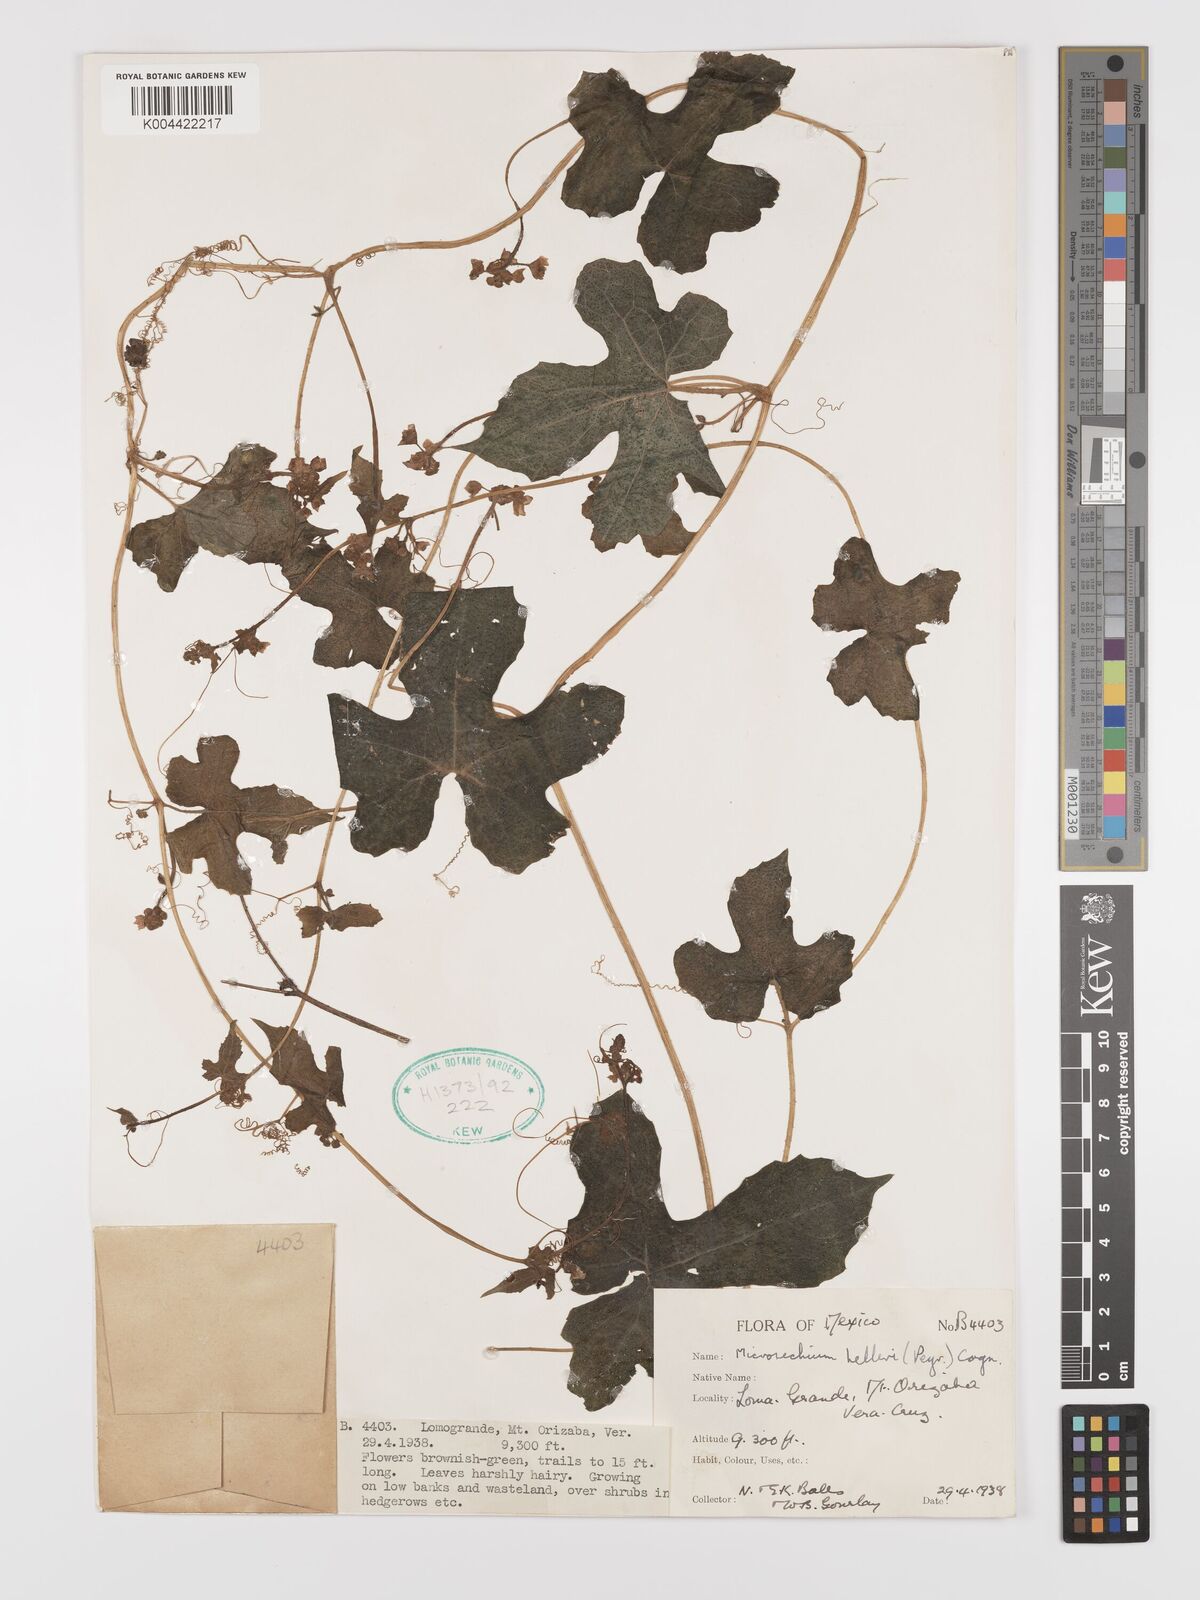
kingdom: Plantae
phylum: Tracheophyta
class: Magnoliopsida
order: Cucurbitales
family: Cucurbitaceae
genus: Microsechium
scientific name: Microsechium palmatum
